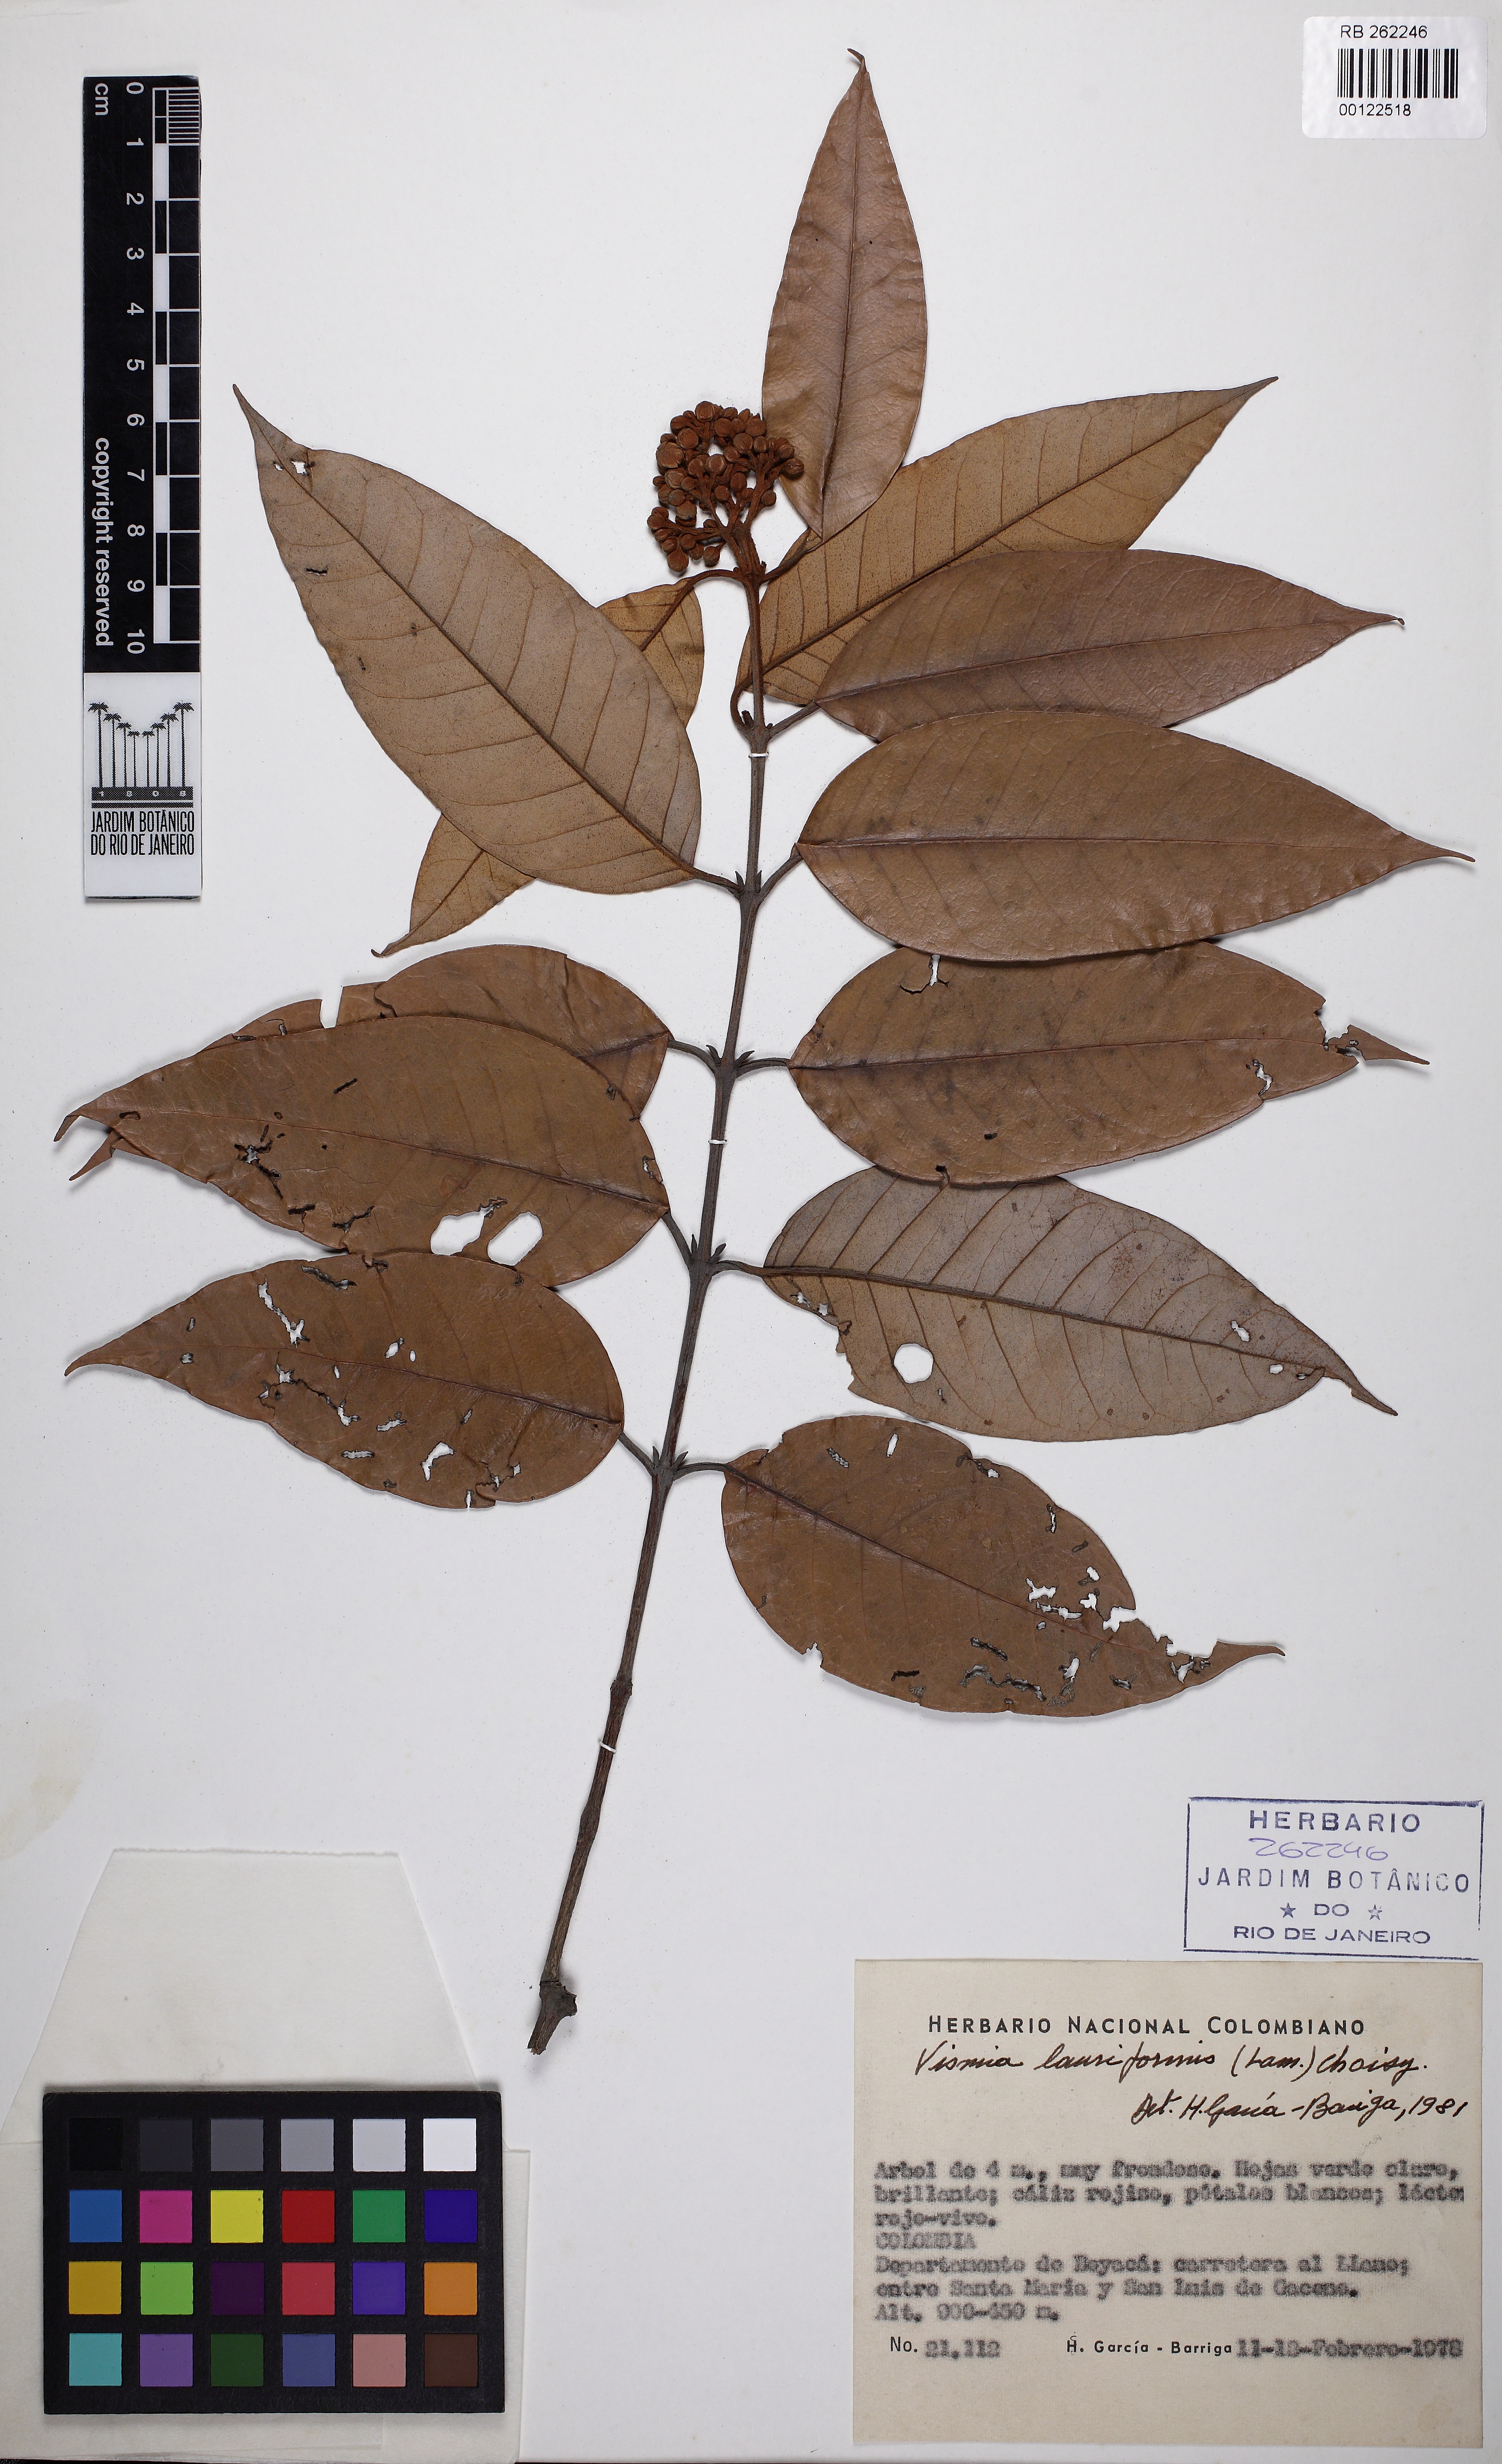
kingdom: Plantae
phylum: Tracheophyta
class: Magnoliopsida
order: Malpighiales
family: Hypericaceae
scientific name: Hypericaceae
